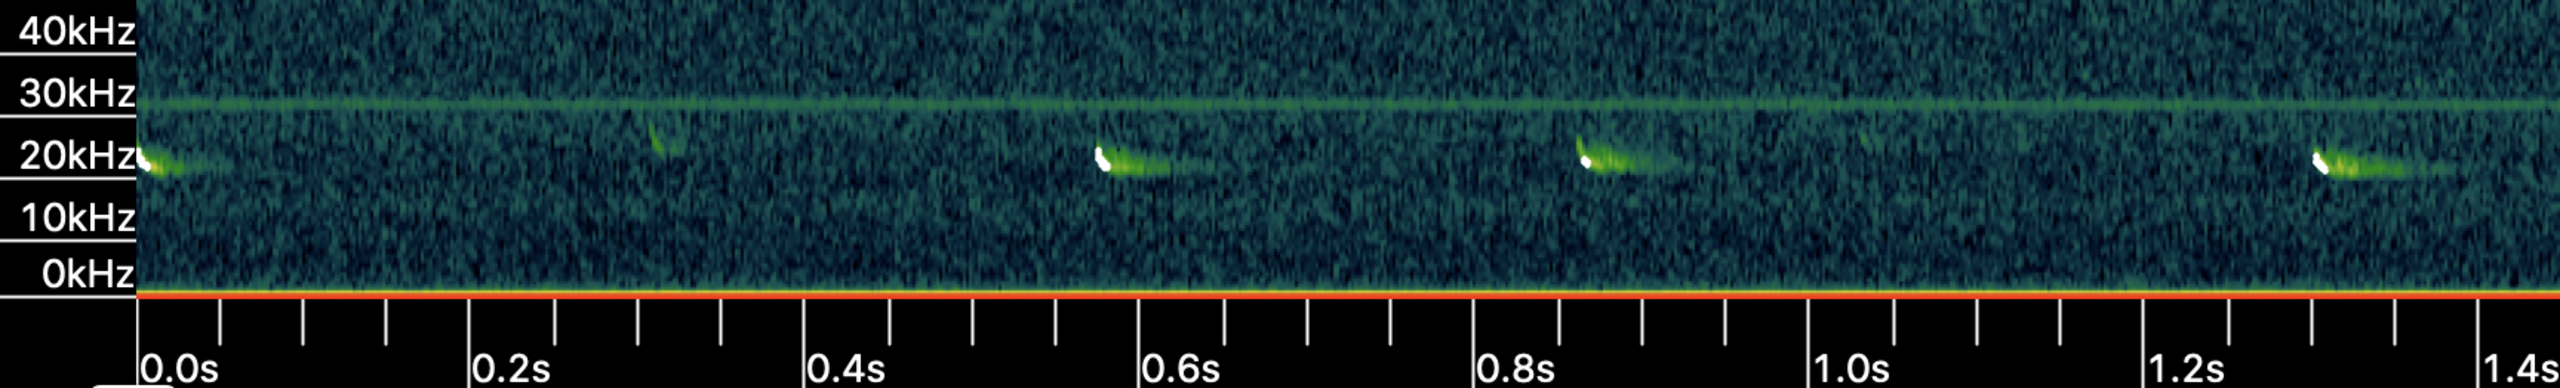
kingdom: Animalia
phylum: Chordata
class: Mammalia
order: Chiroptera
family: Vespertilionidae
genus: Nyctalus
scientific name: Nyctalus noctula
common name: Brunflagermus
